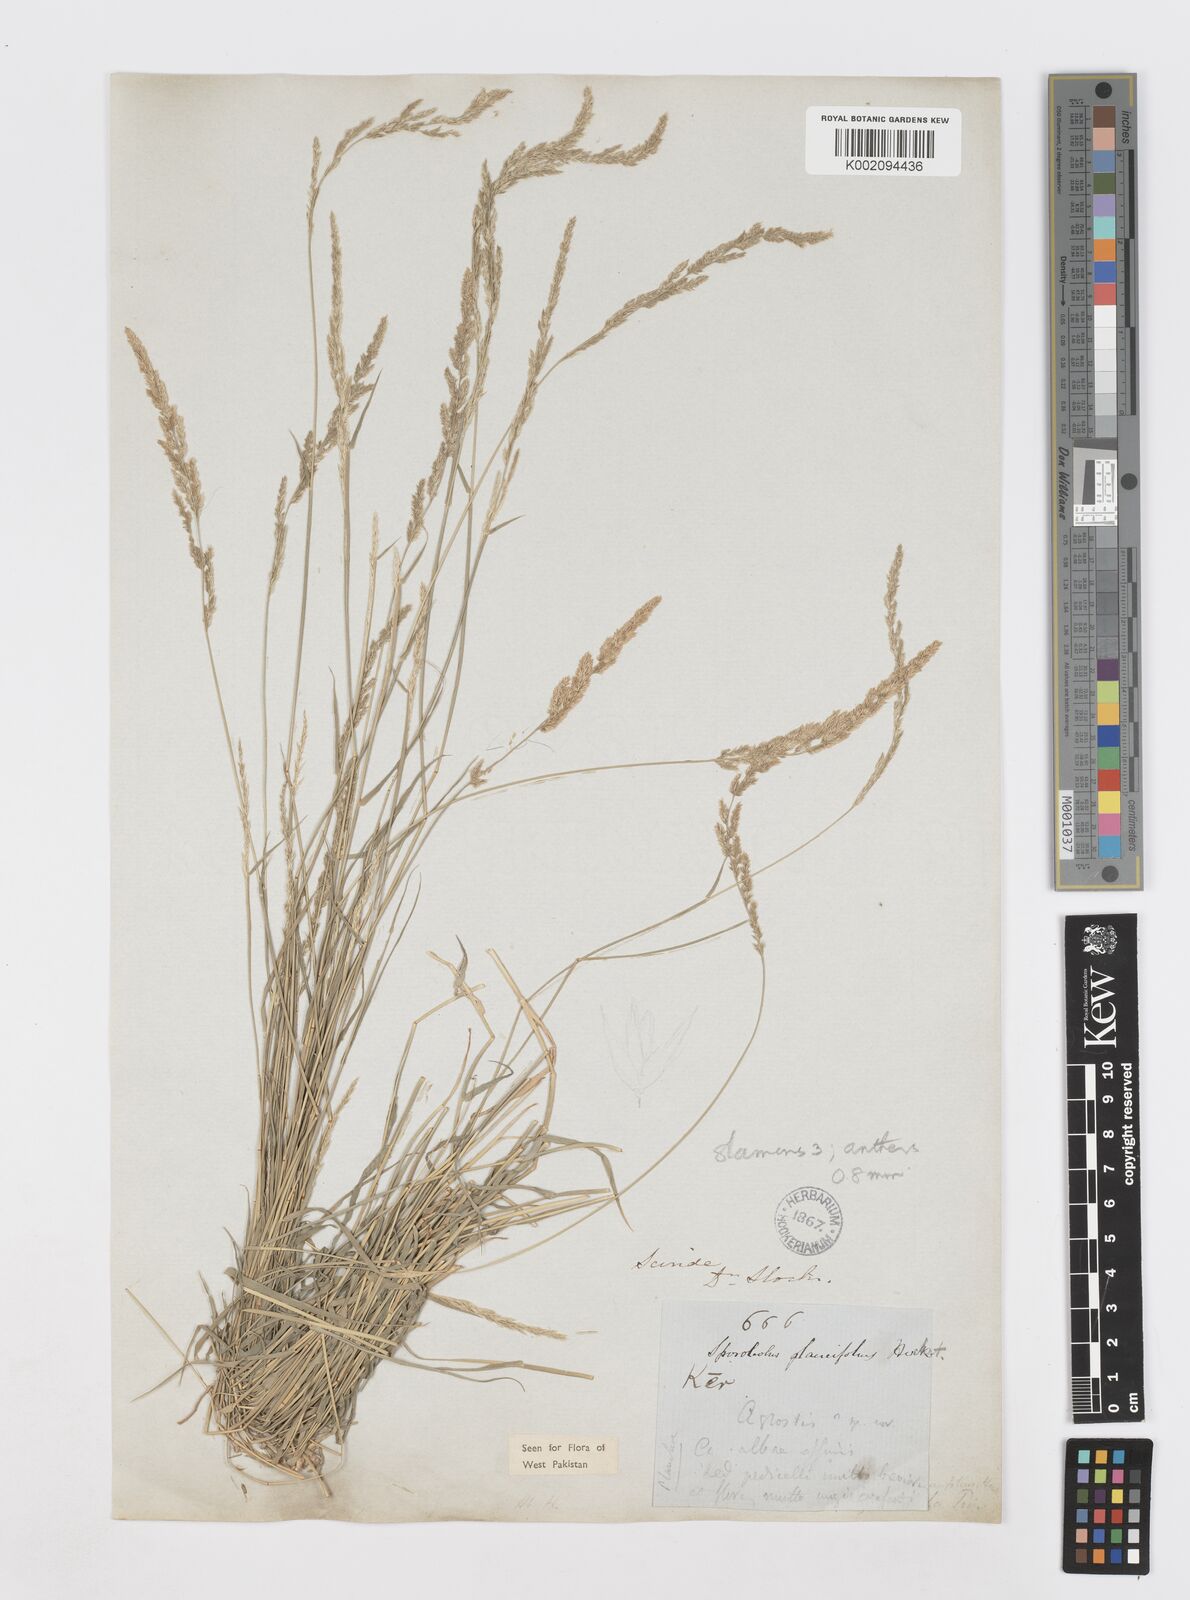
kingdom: Plantae
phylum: Tracheophyta
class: Liliopsida
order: Poales
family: Poaceae
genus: Sporobolus
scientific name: Sporobolus helvolus
